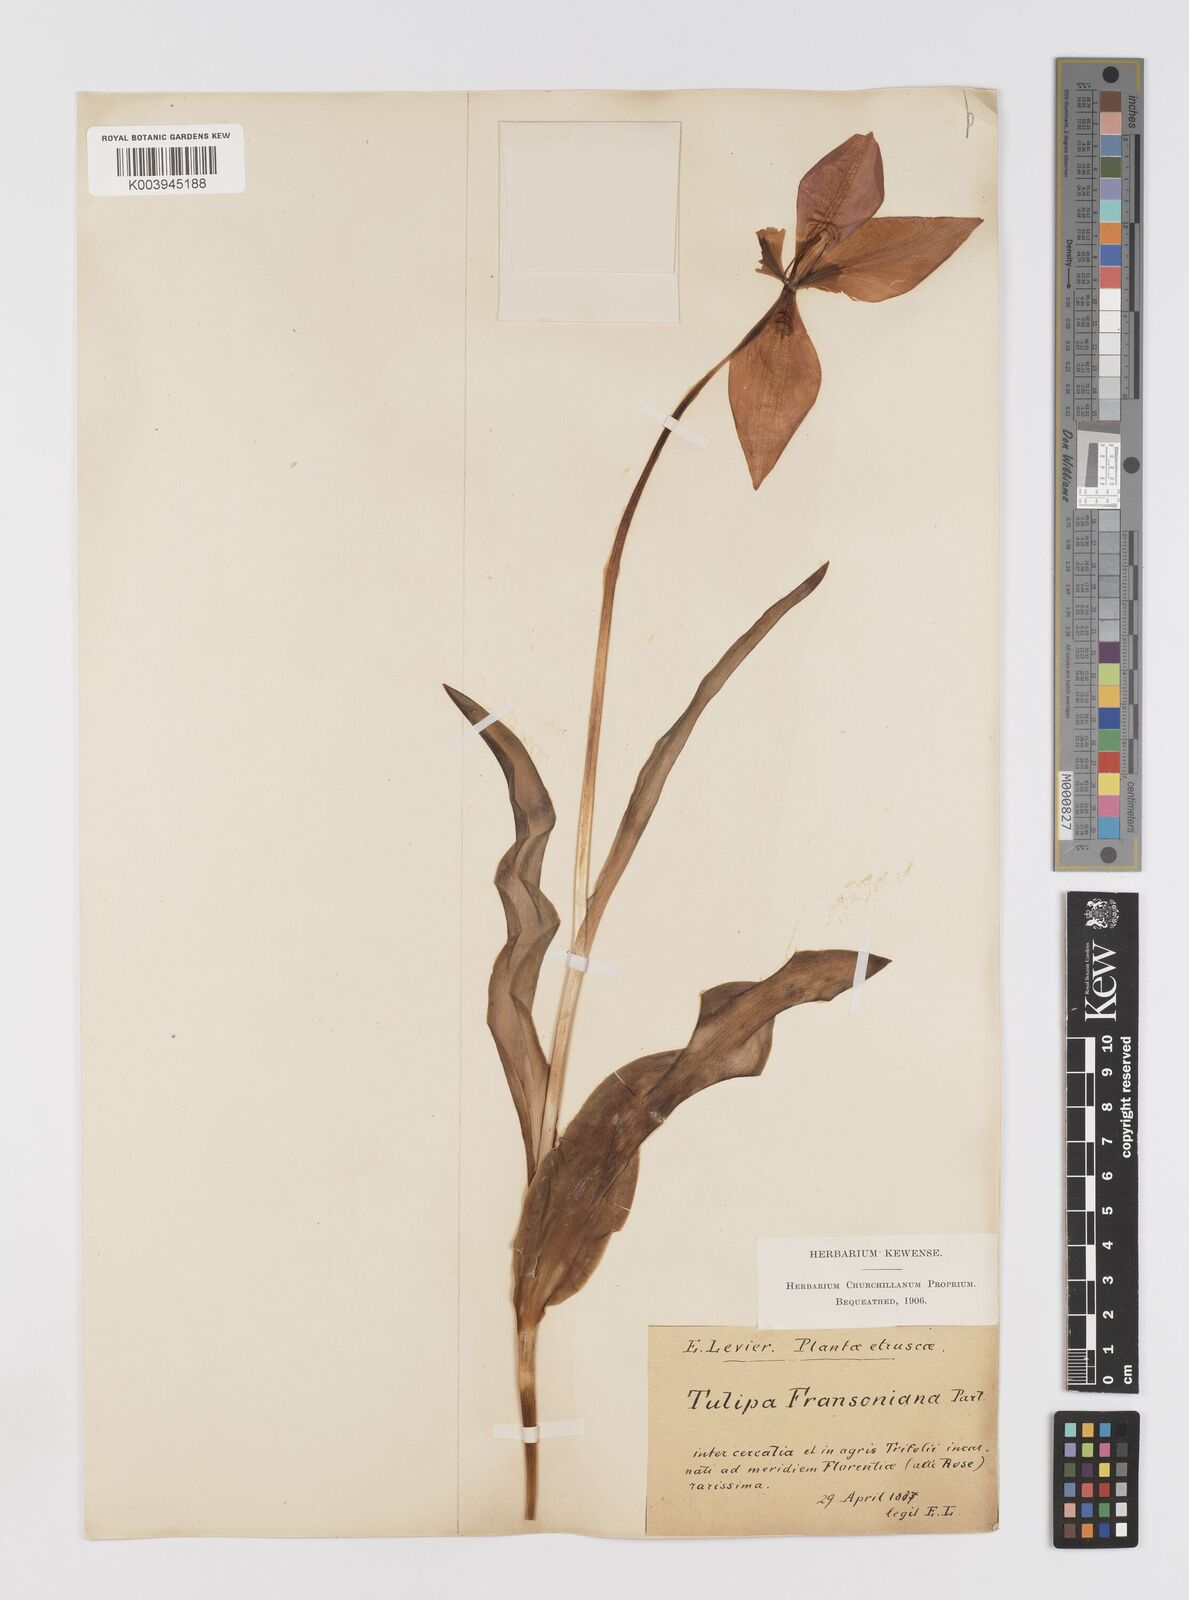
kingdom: Plantae
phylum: Tracheophyta
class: Liliopsida
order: Liliales
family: Liliaceae
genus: Tulipa
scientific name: Tulipa gesneriana
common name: Garden tulip
